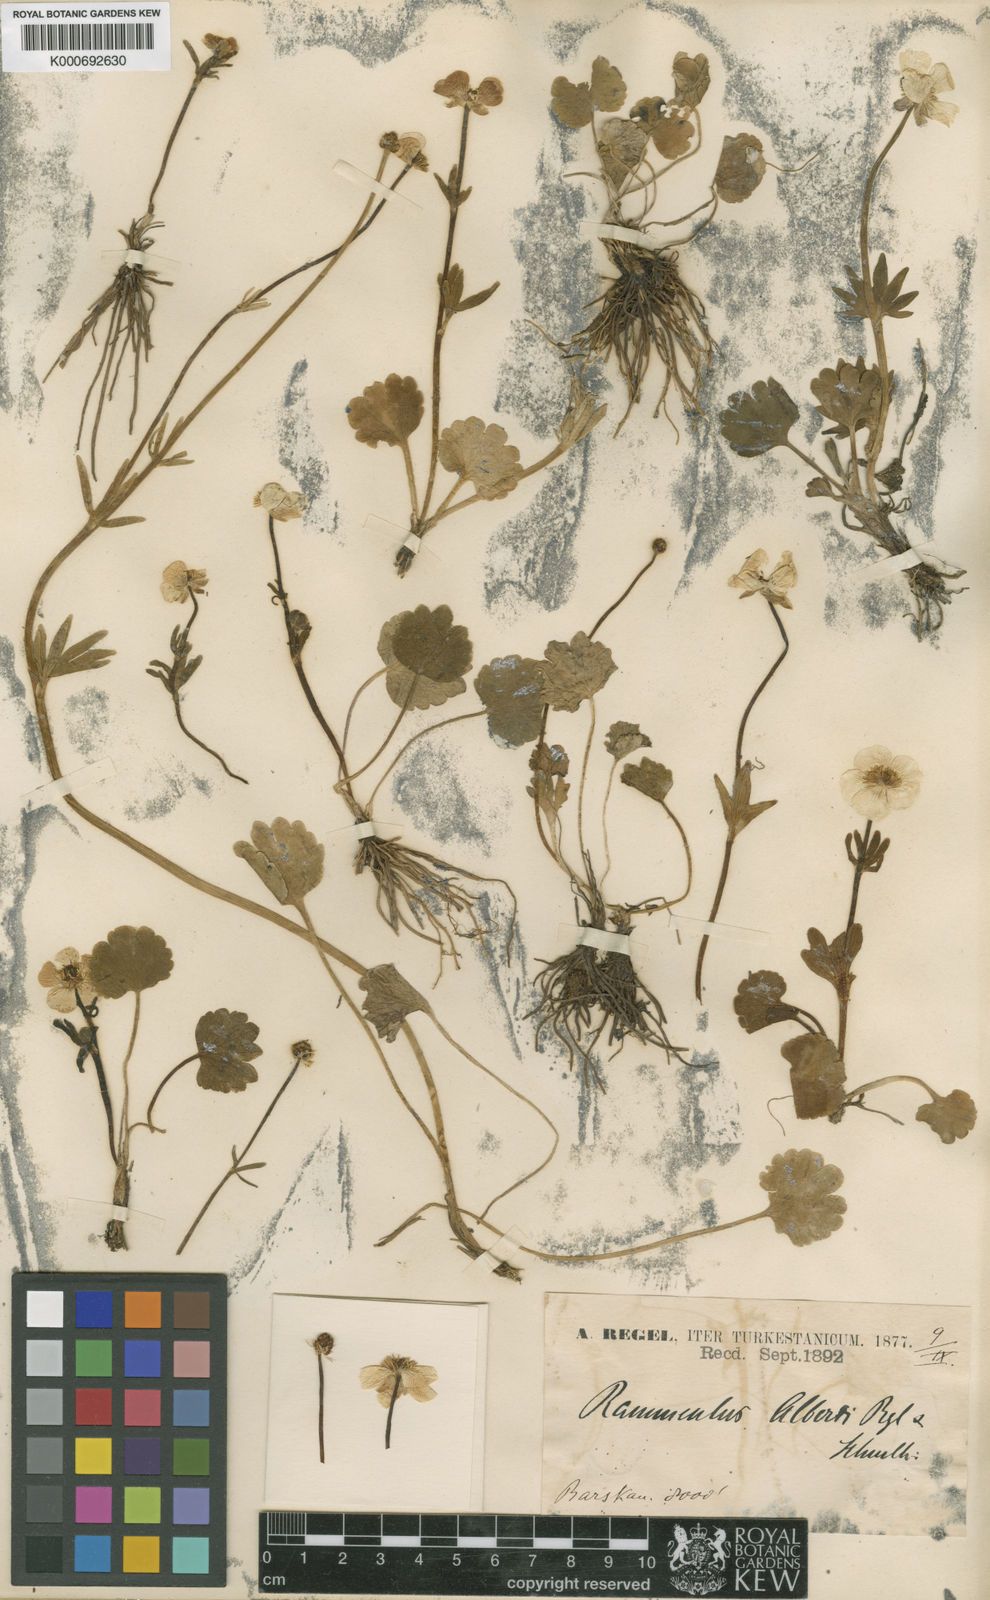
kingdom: Plantae
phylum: Tracheophyta
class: Magnoliopsida
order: Ranunculales
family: Ranunculaceae
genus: Ranunculus
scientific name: Ranunculus alberti
